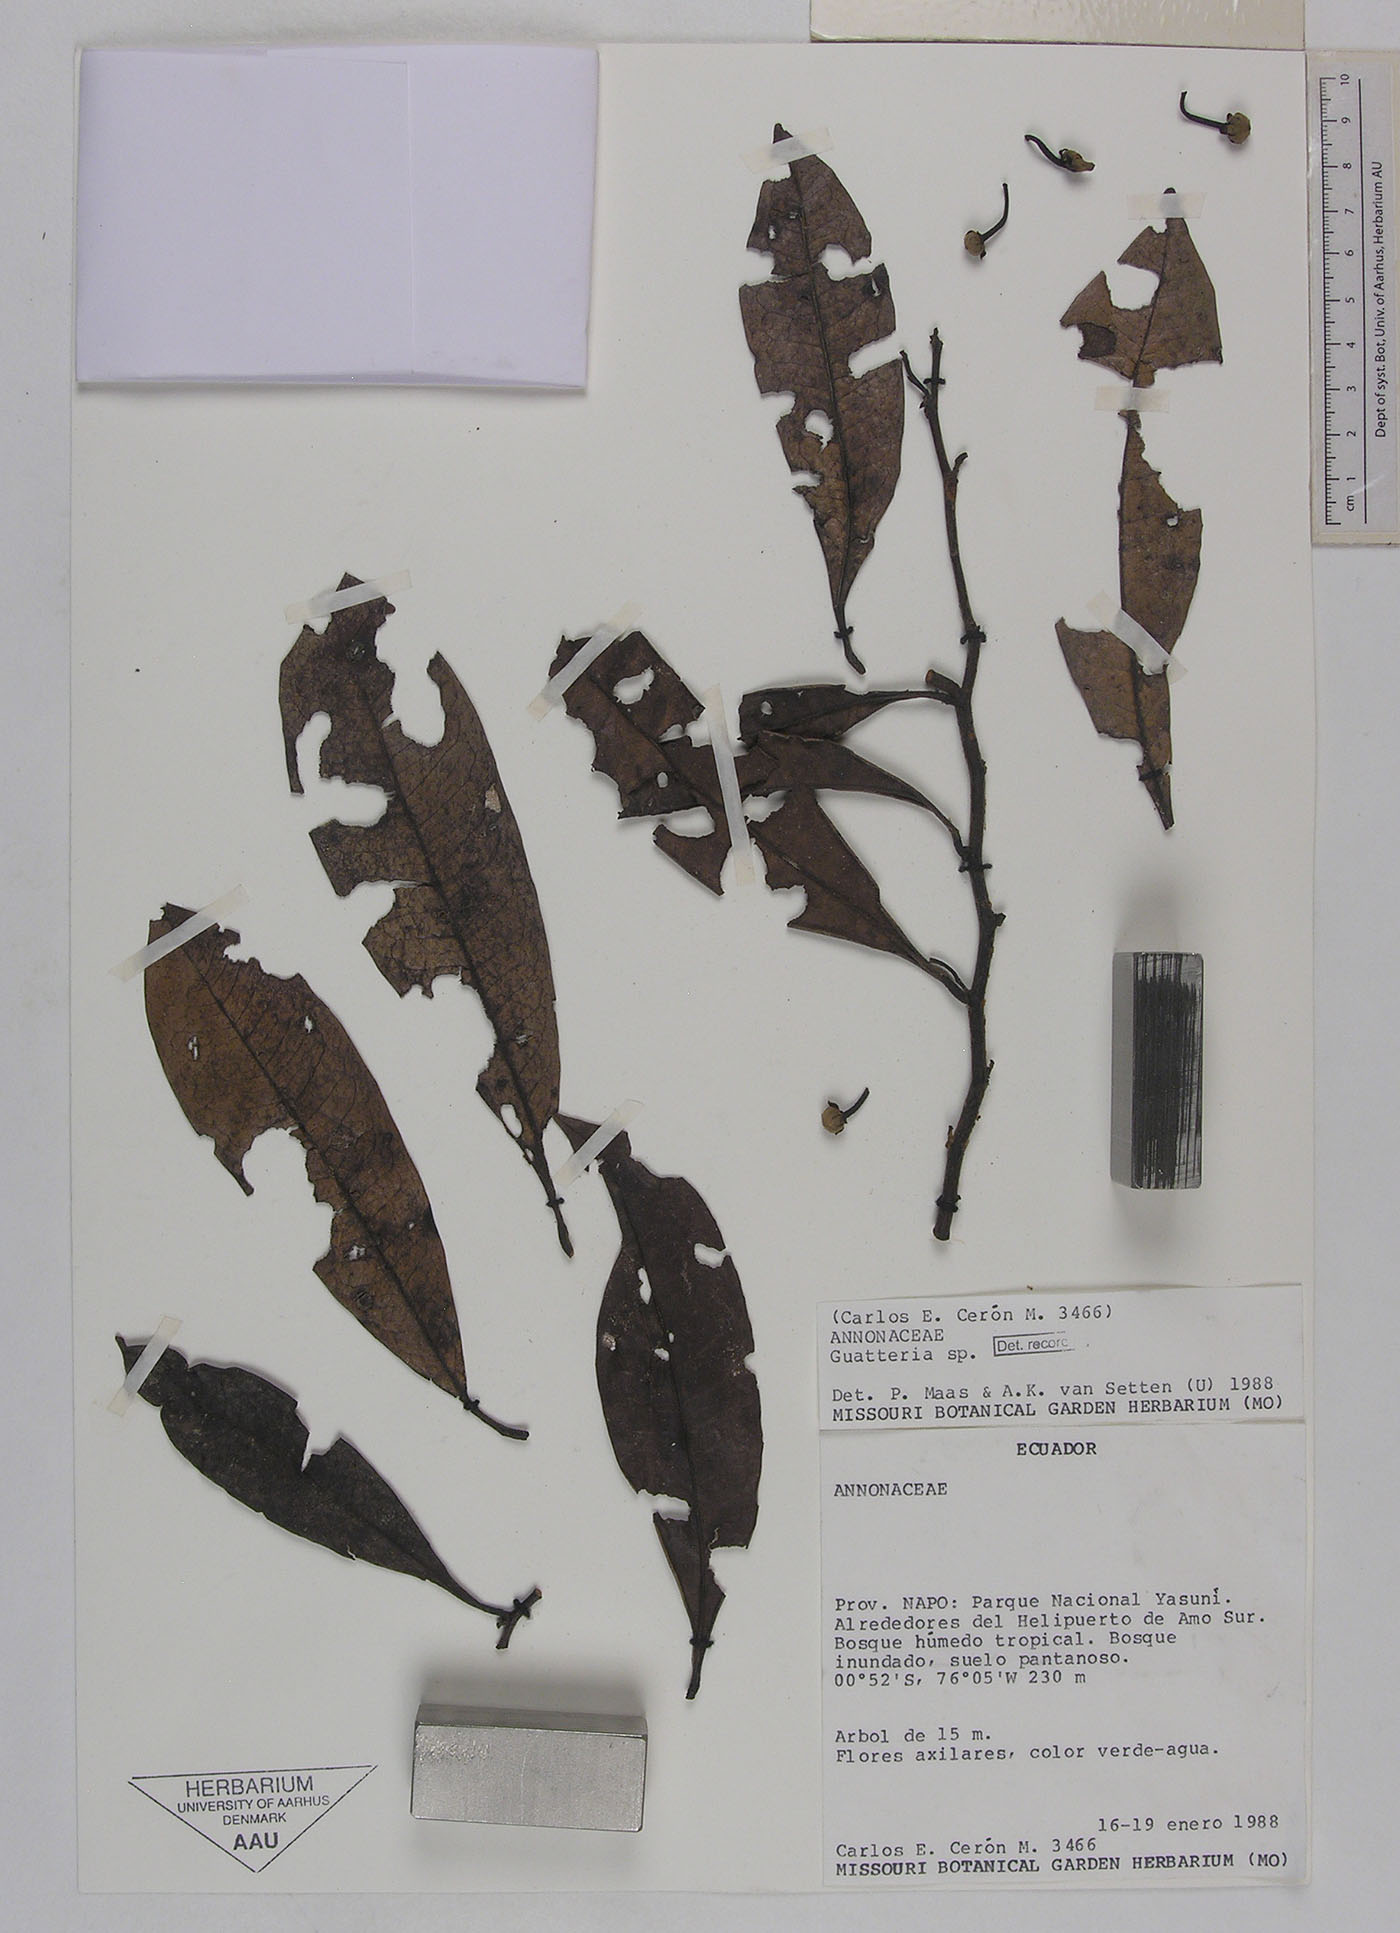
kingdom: Plantae
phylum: Tracheophyta
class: Magnoliopsida
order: Magnoliales
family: Annonaceae
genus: Guatteria
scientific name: Guatteria modesta
